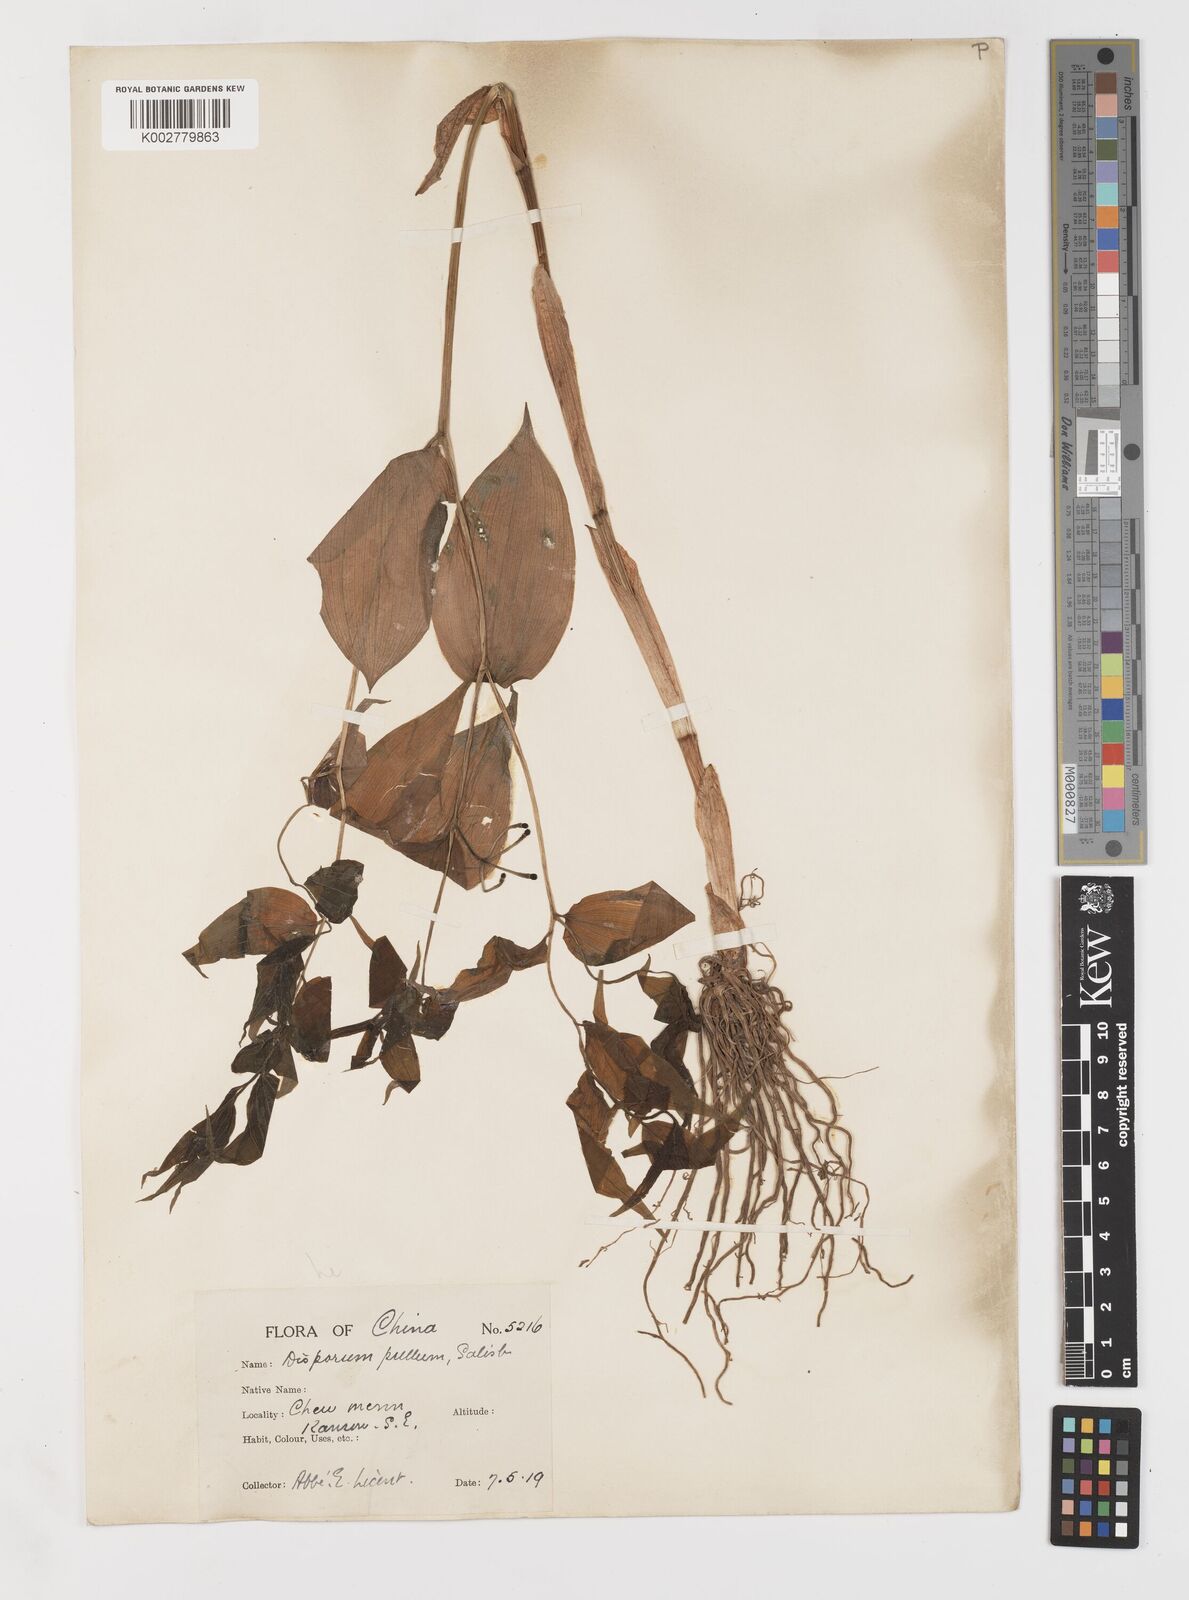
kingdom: Plantae
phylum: Tracheophyta
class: Liliopsida
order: Liliales
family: Colchicaceae
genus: Disporum
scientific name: Disporum
